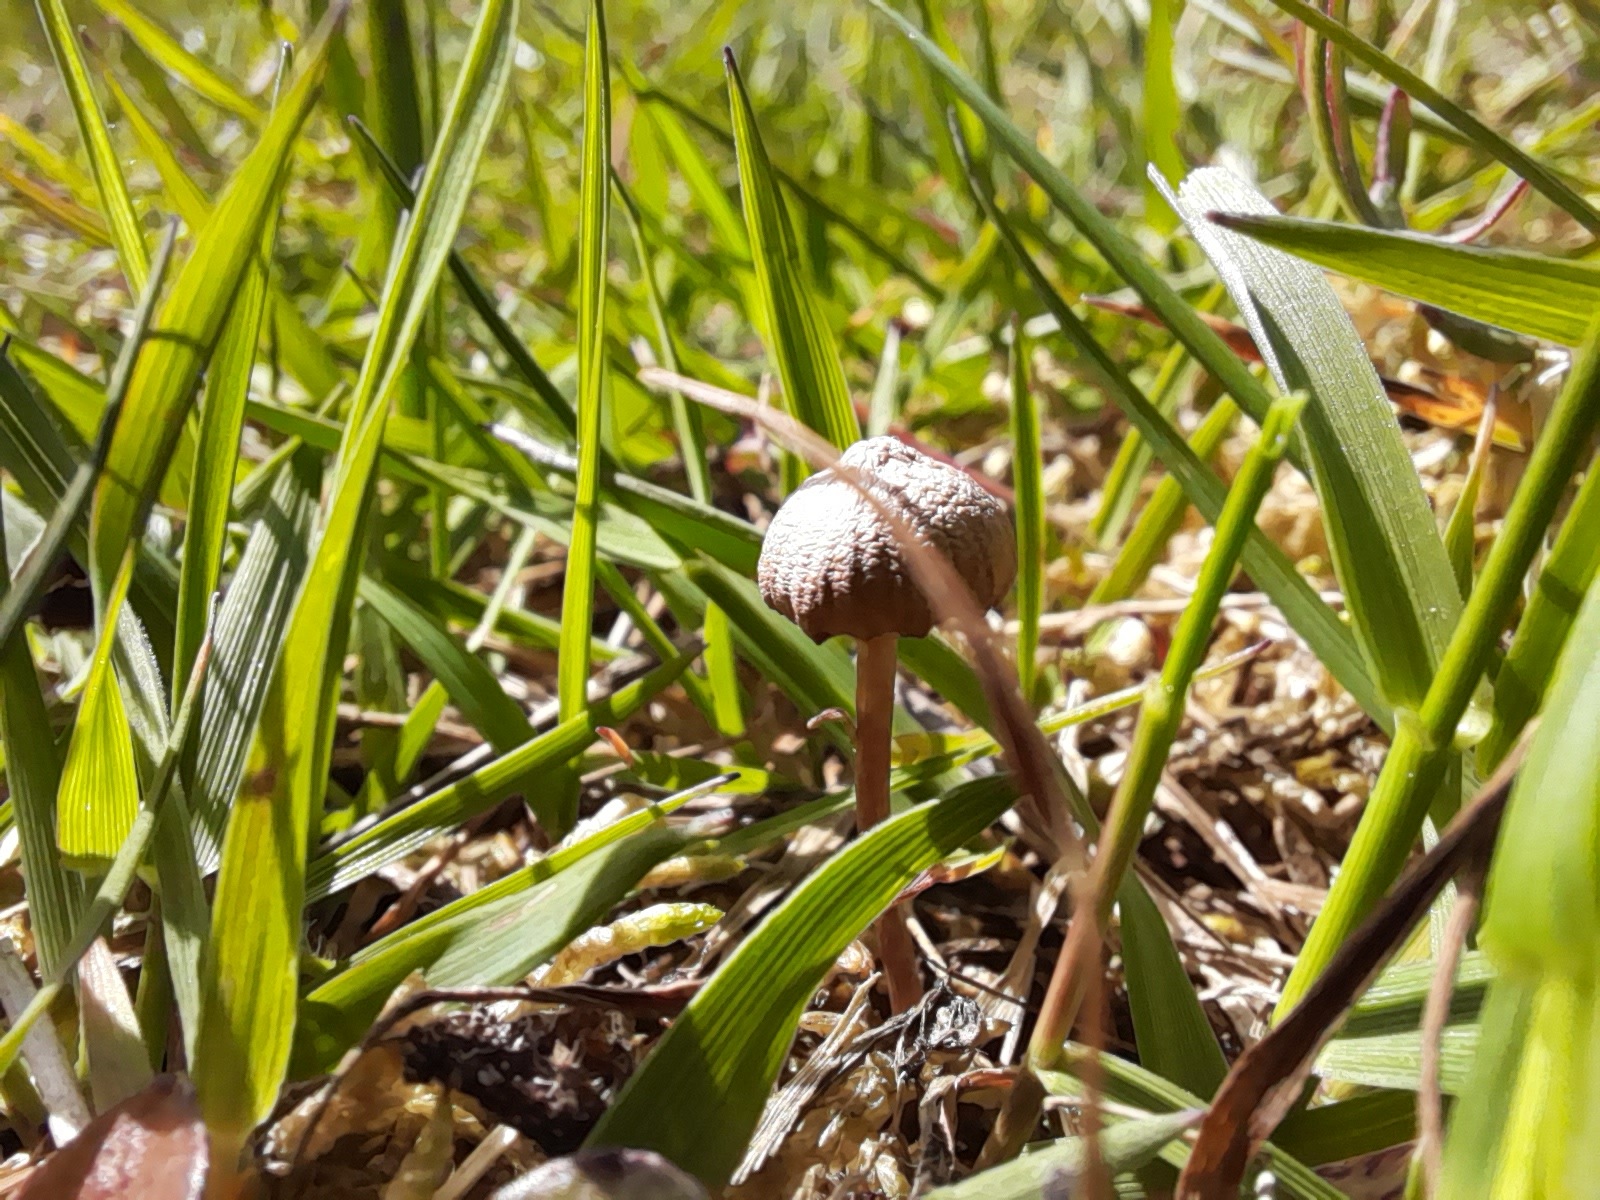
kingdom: Fungi
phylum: Basidiomycota
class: Agaricomycetes
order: Agaricales
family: Strophariaceae
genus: Deconica
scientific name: Deconica
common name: stråhat
